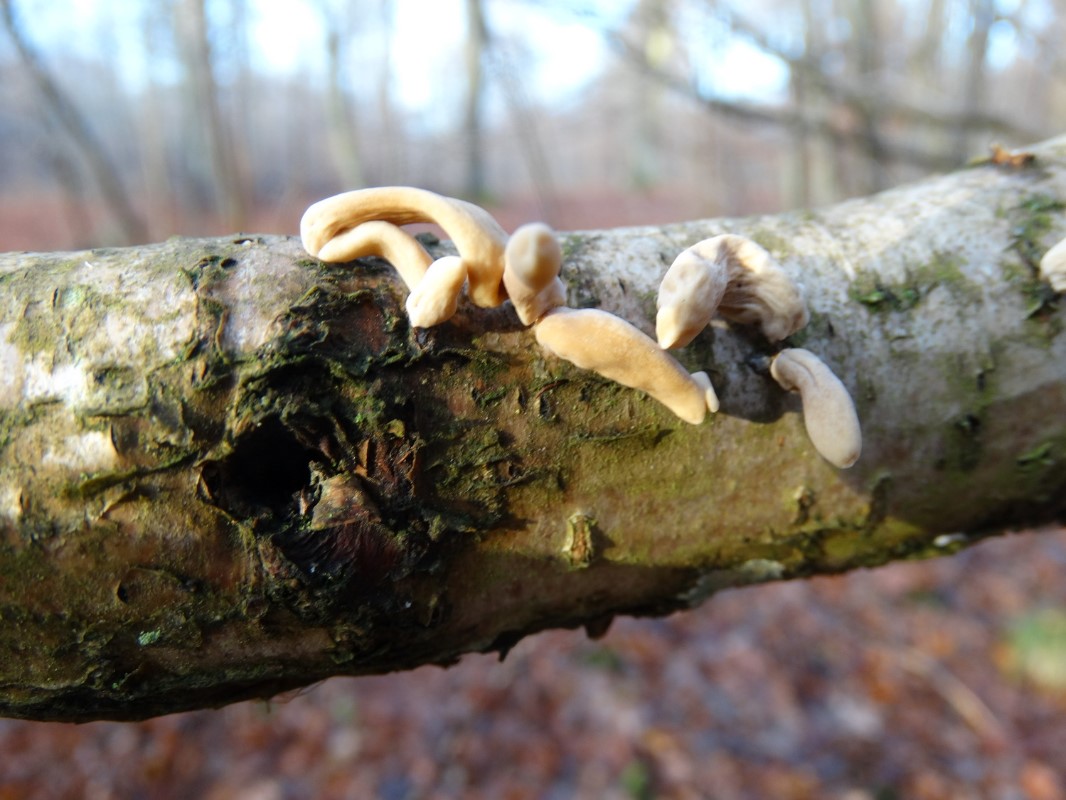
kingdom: Fungi
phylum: Basidiomycota
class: Agaricomycetes
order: Agaricales
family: Typhulaceae
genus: Typhula
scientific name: Typhula contorta
